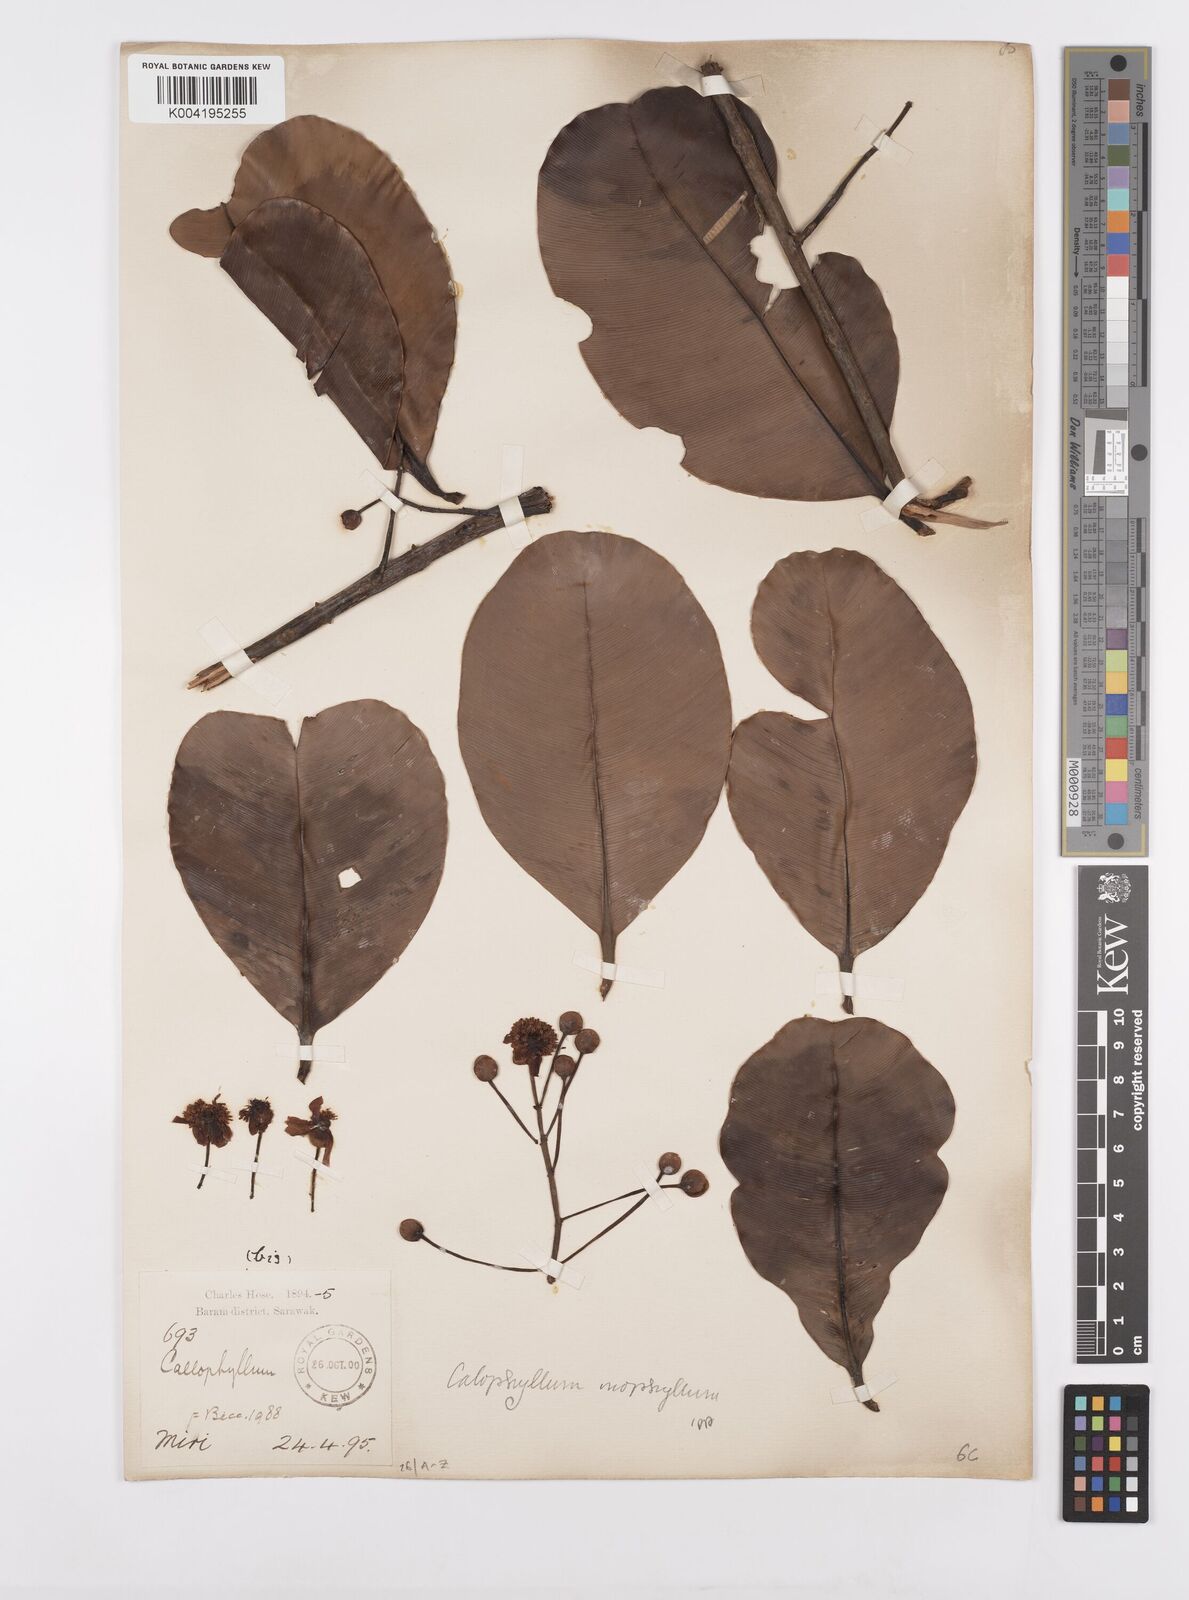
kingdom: Plantae
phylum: Tracheophyta
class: Magnoliopsida
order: Malpighiales
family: Calophyllaceae
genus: Calophyllum
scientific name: Calophyllum inophyllum
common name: Alexandrian laurel
